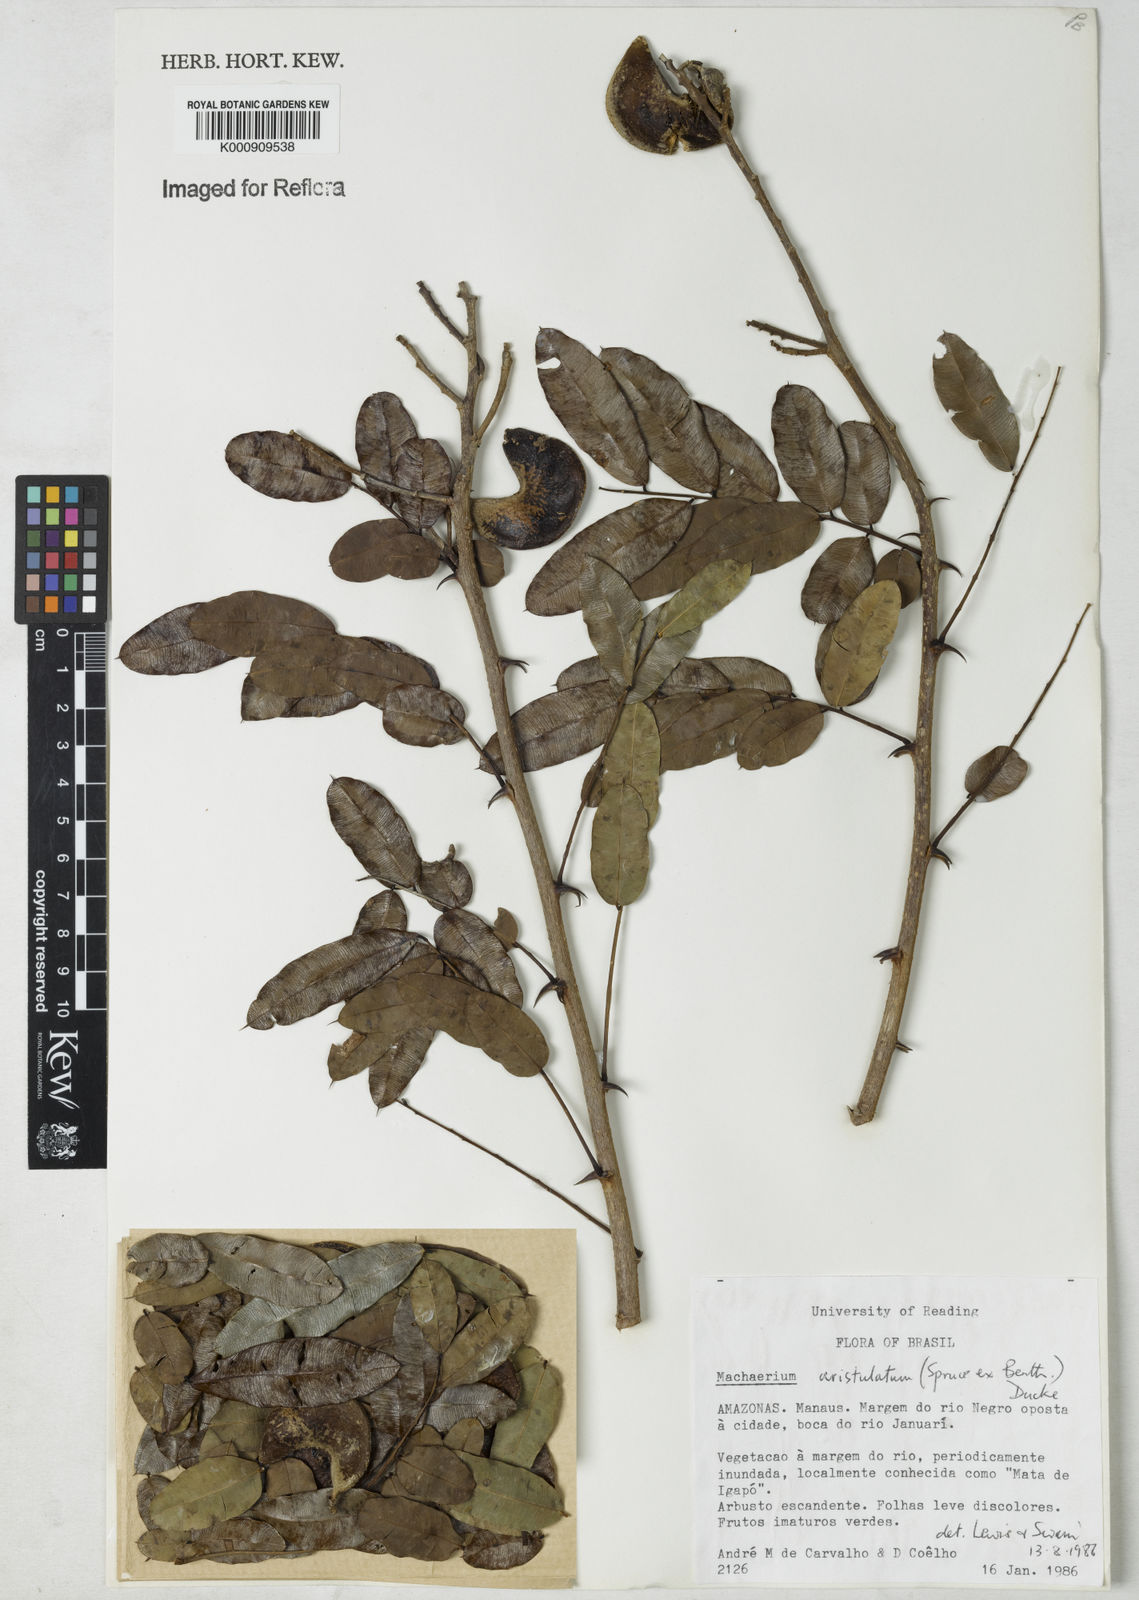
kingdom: Plantae
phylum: Tracheophyta
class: Magnoliopsida
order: Fabales
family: Fabaceae
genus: Machaerium
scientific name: Machaerium aristulatum
